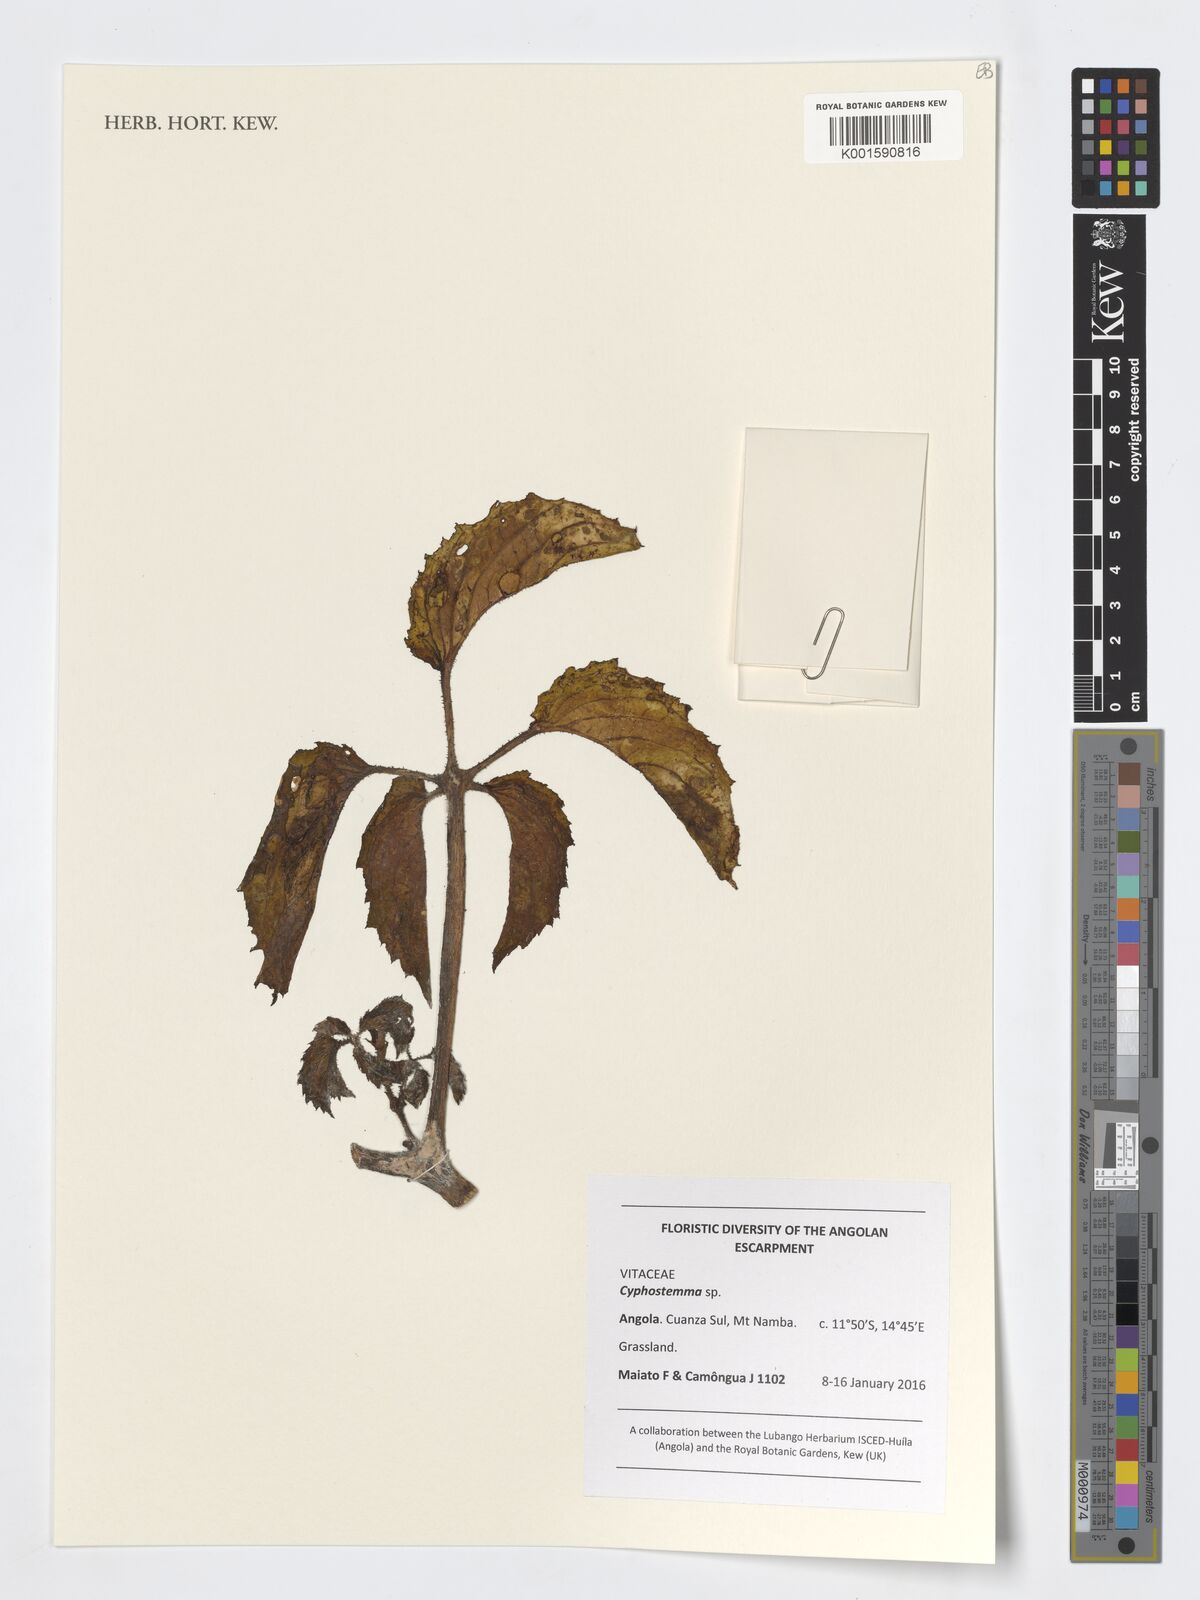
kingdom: Plantae
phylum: Tracheophyta
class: Magnoliopsida
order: Vitales
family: Vitaceae
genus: Cyphostemma
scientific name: Cyphostemma
